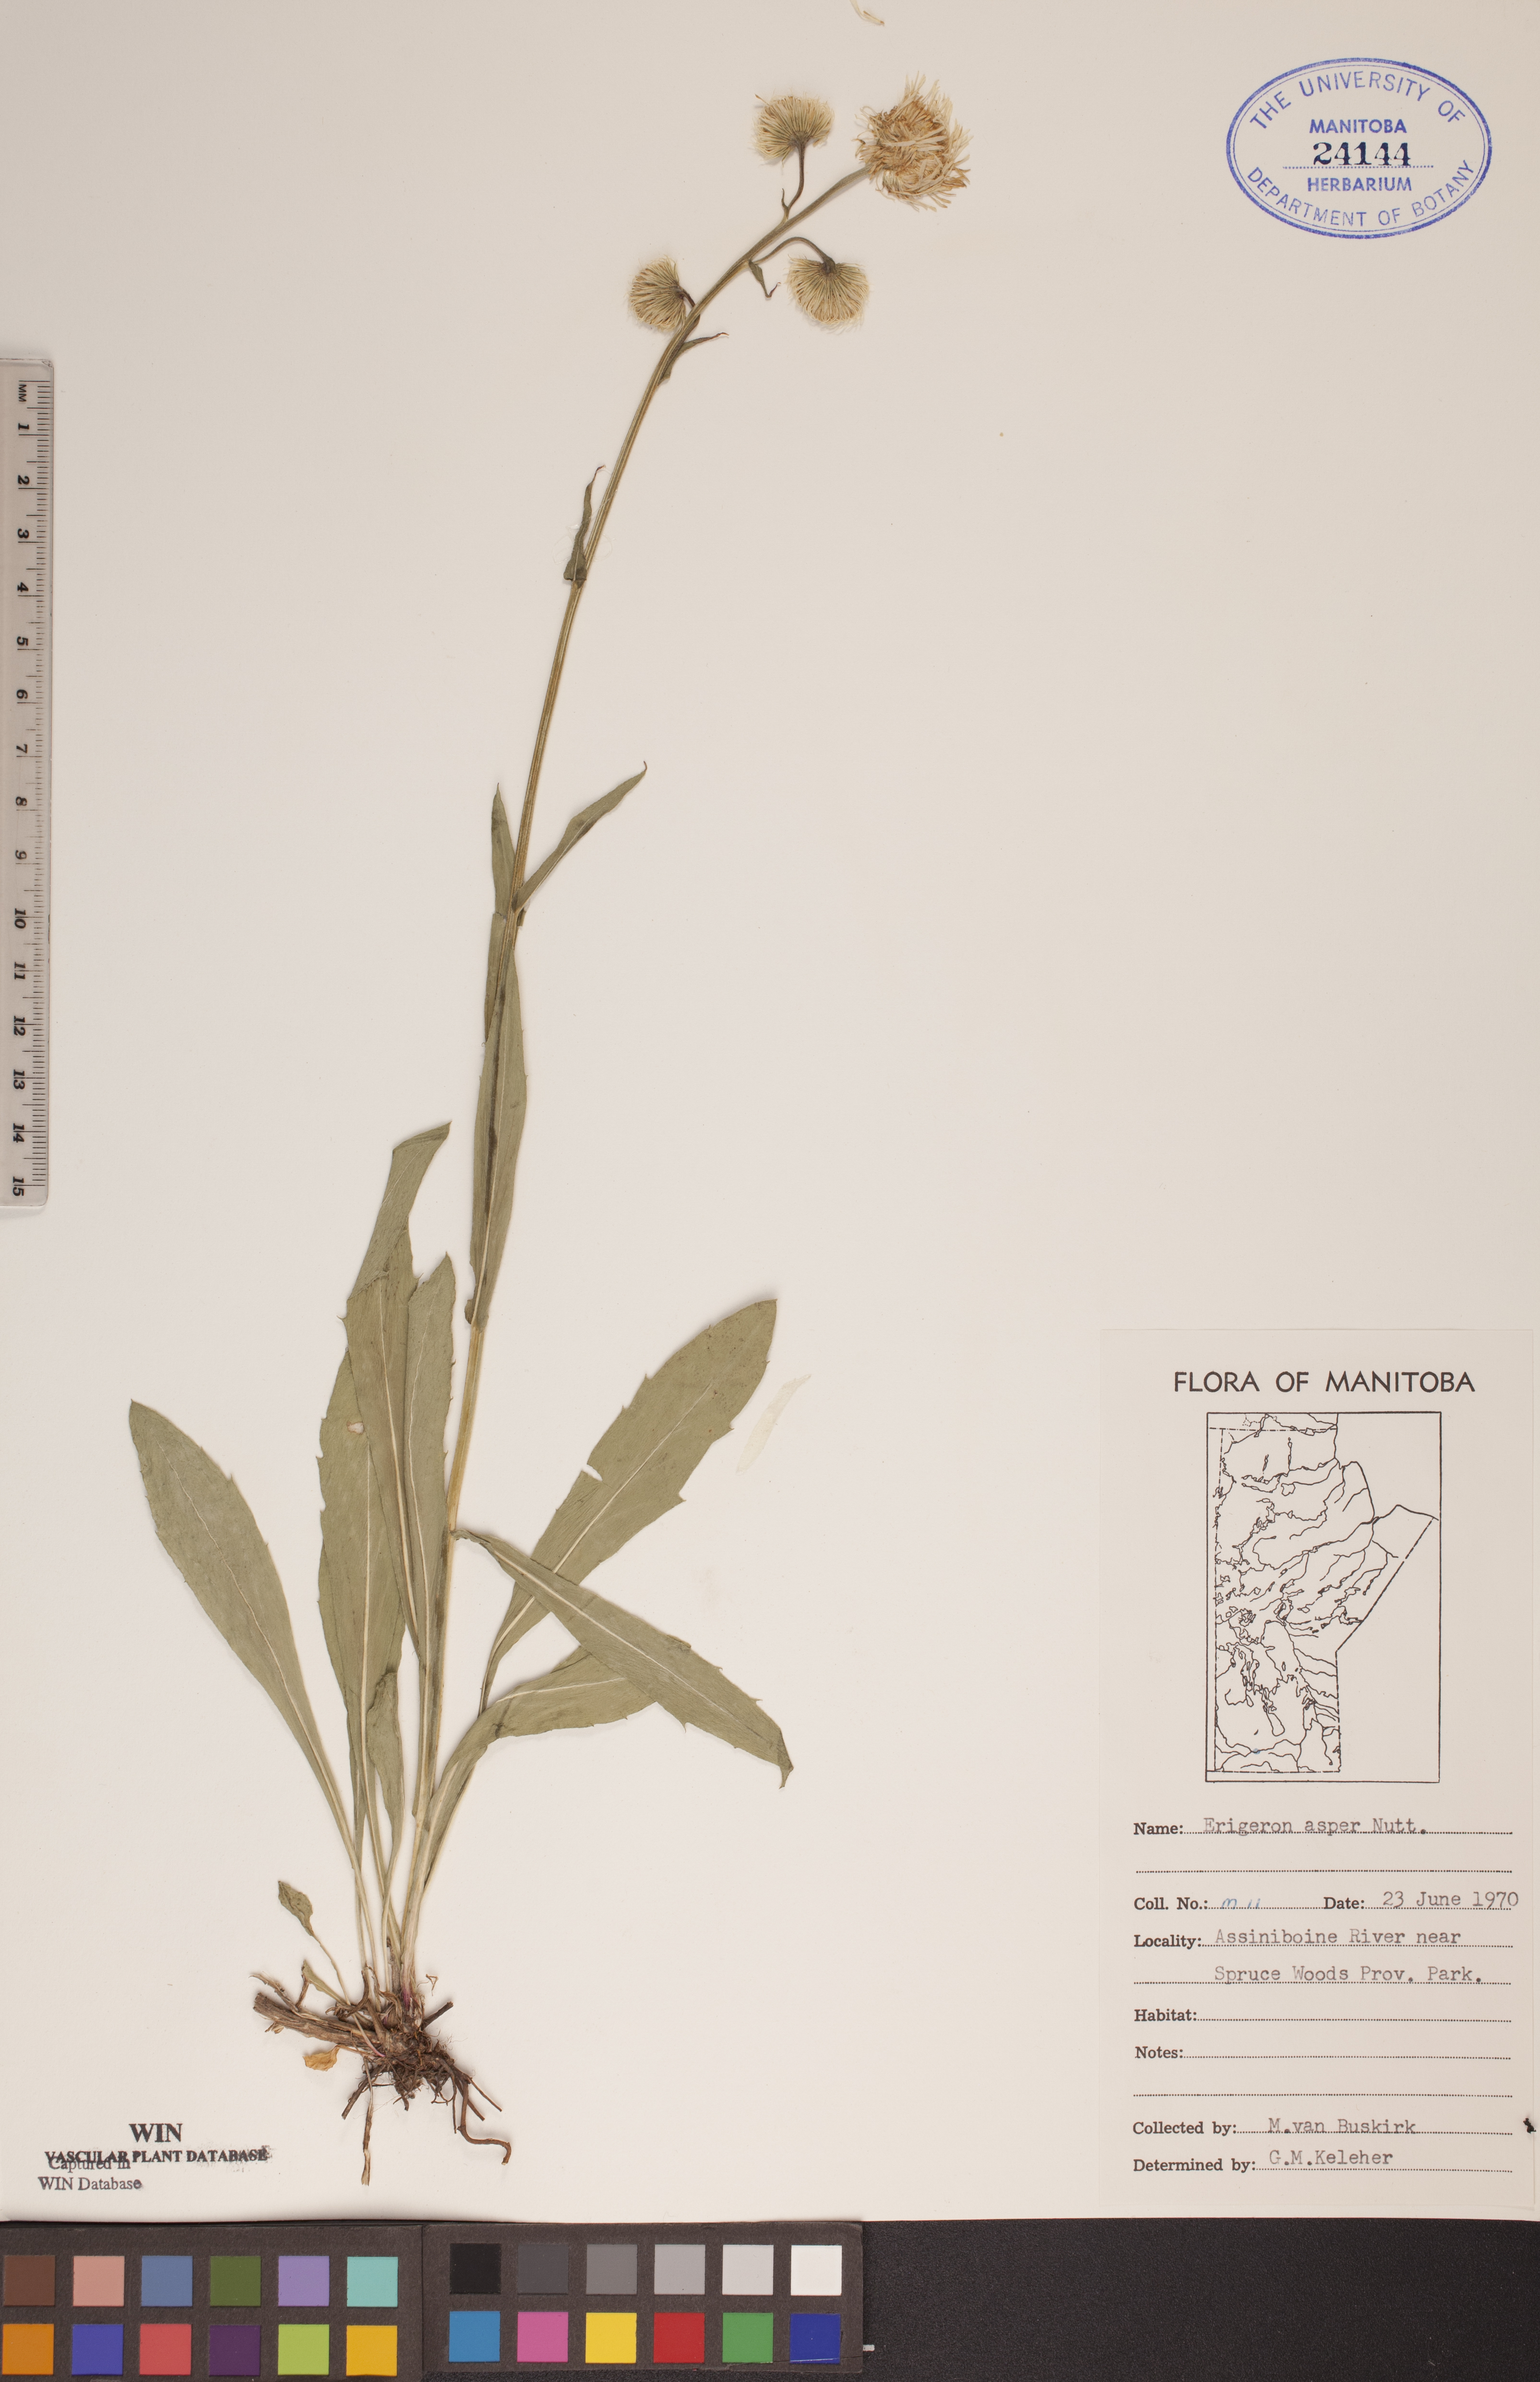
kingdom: Plantae
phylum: Tracheophyta
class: Magnoliopsida
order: Asterales
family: Asteraceae
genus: Erigeron
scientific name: Erigeron glabellus
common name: Smooth fleabane
